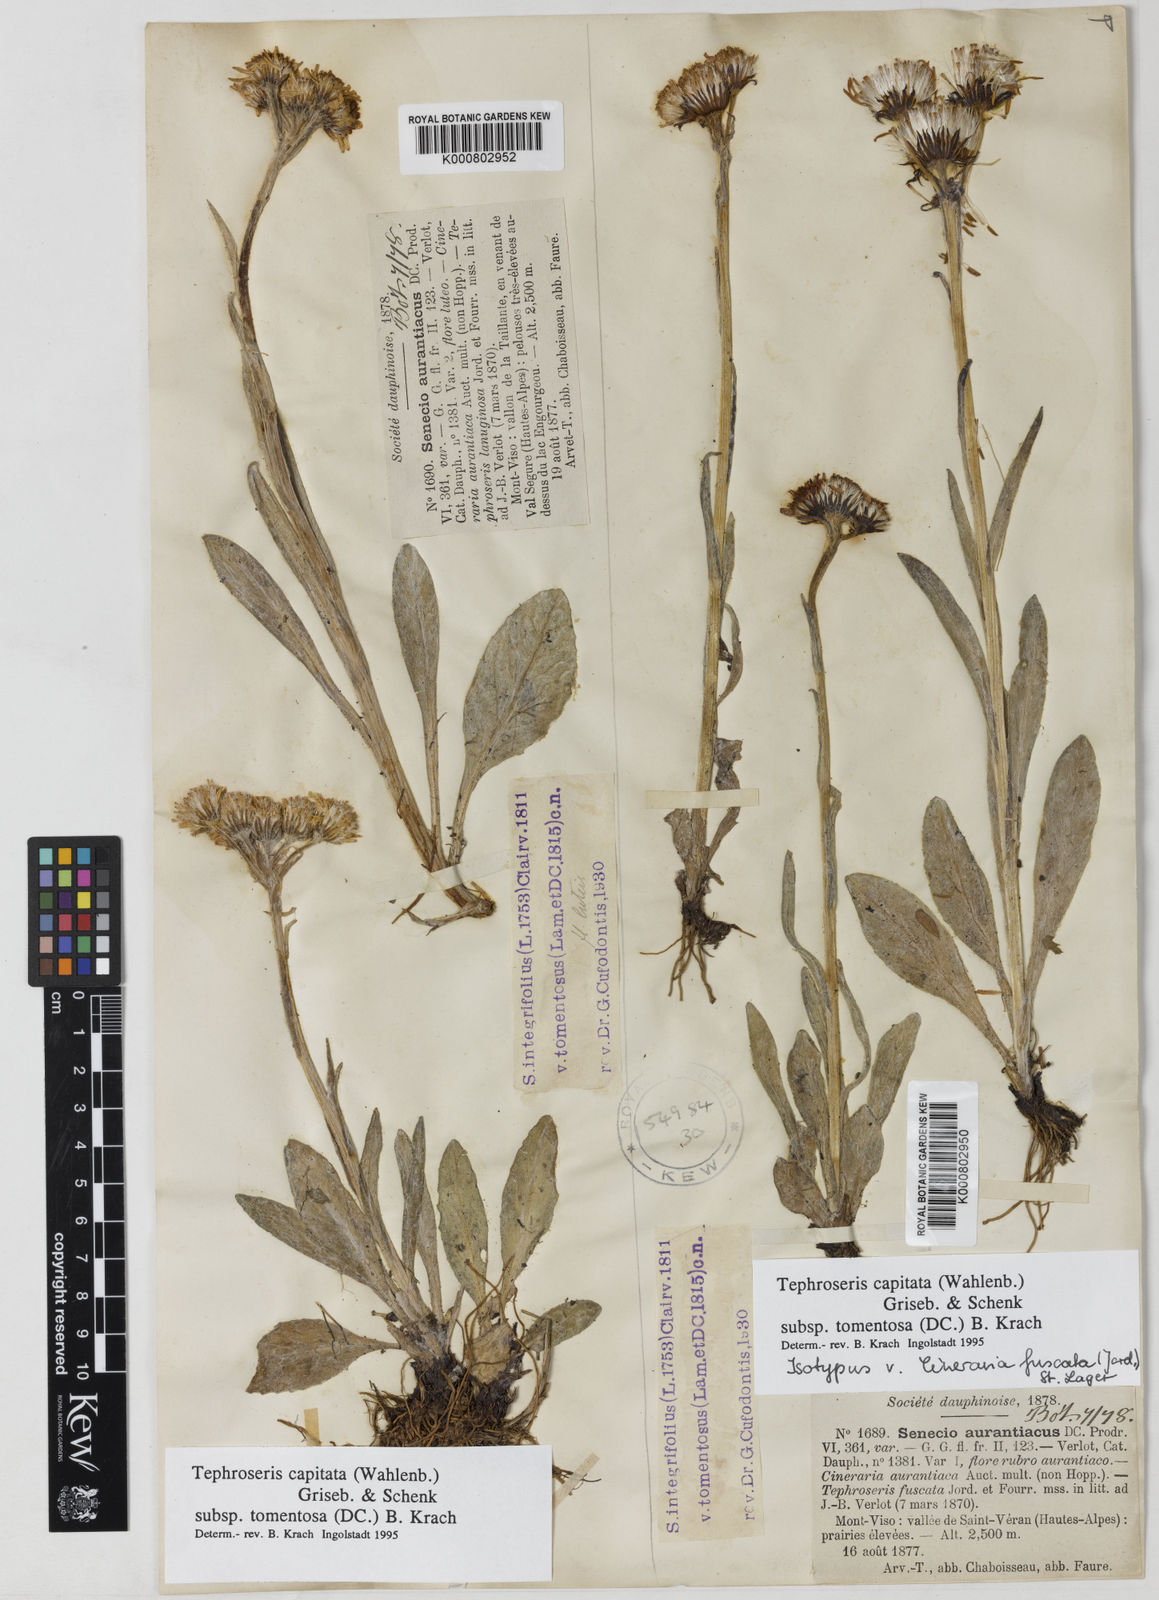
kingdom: Plantae
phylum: Tracheophyta
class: Magnoliopsida
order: Asterales
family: Asteraceae
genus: Tephroseris
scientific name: Tephroseris integrifolia
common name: Field fleawort
